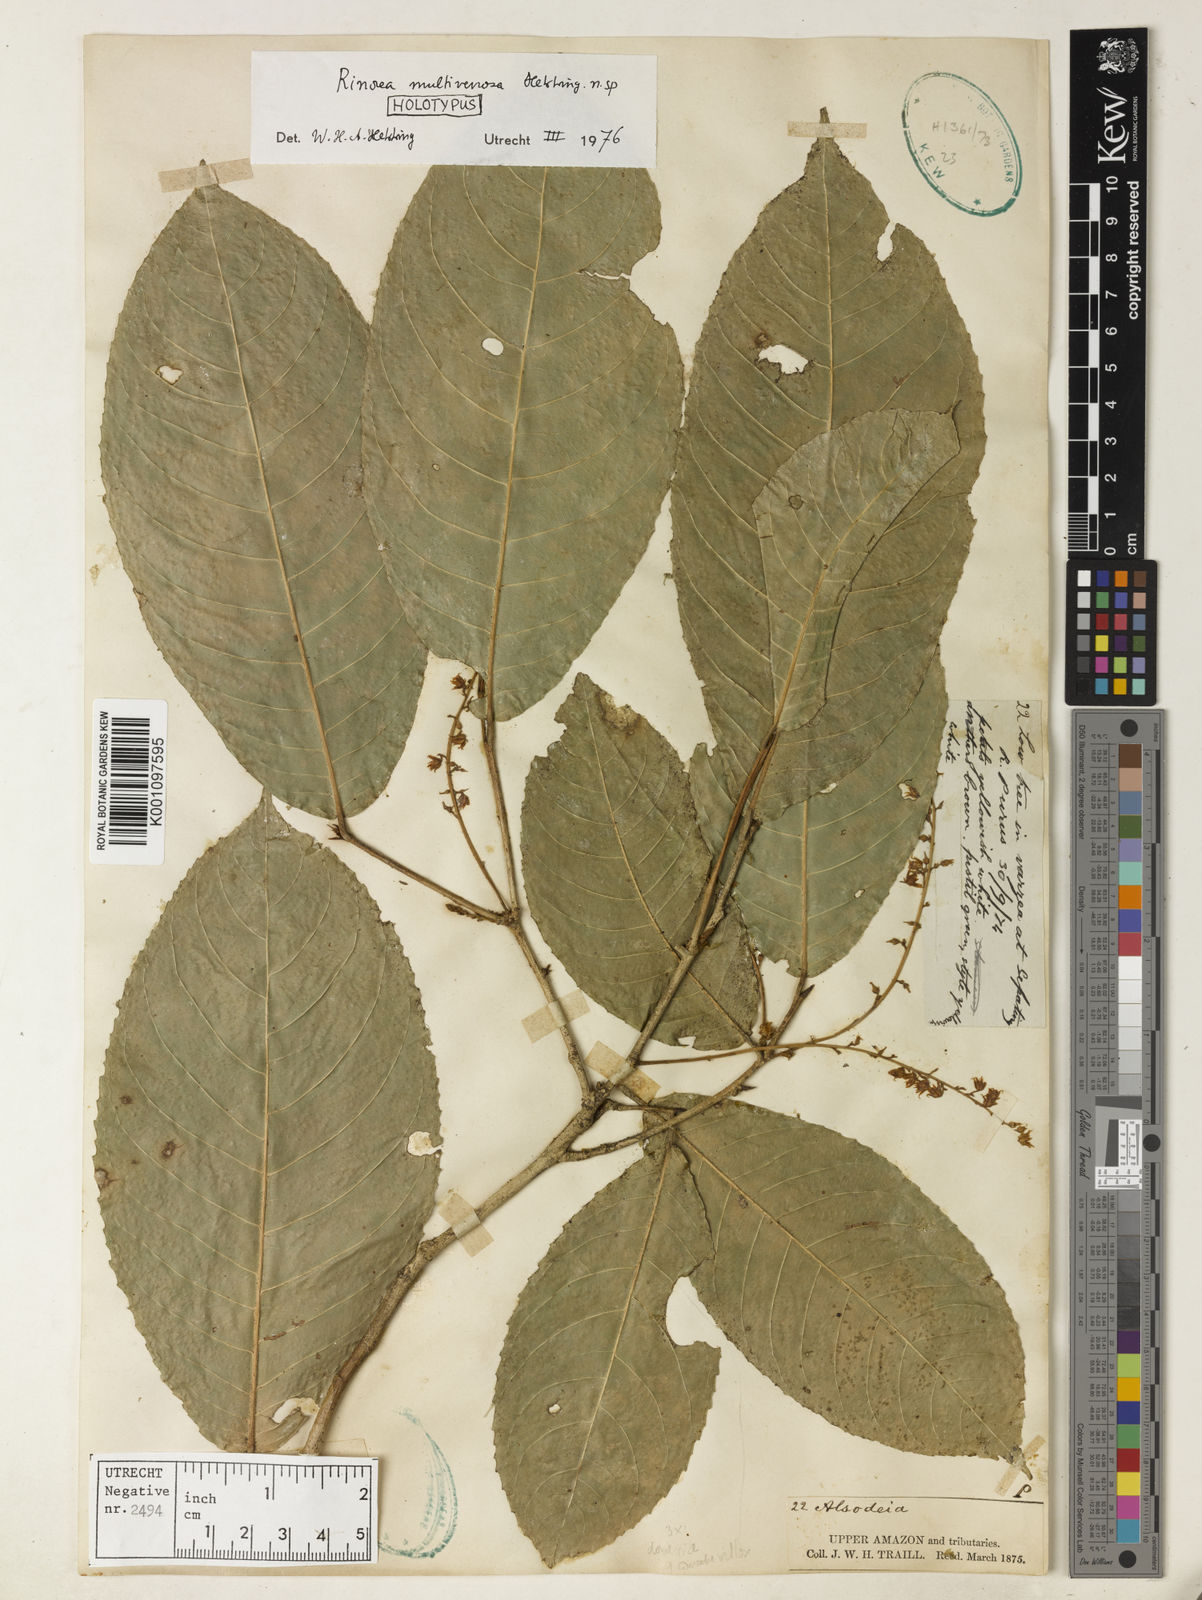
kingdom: Plantae
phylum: Tracheophyta
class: Magnoliopsida
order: Malpighiales
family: Violaceae
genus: Rinorea
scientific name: Rinorea multivenosa
